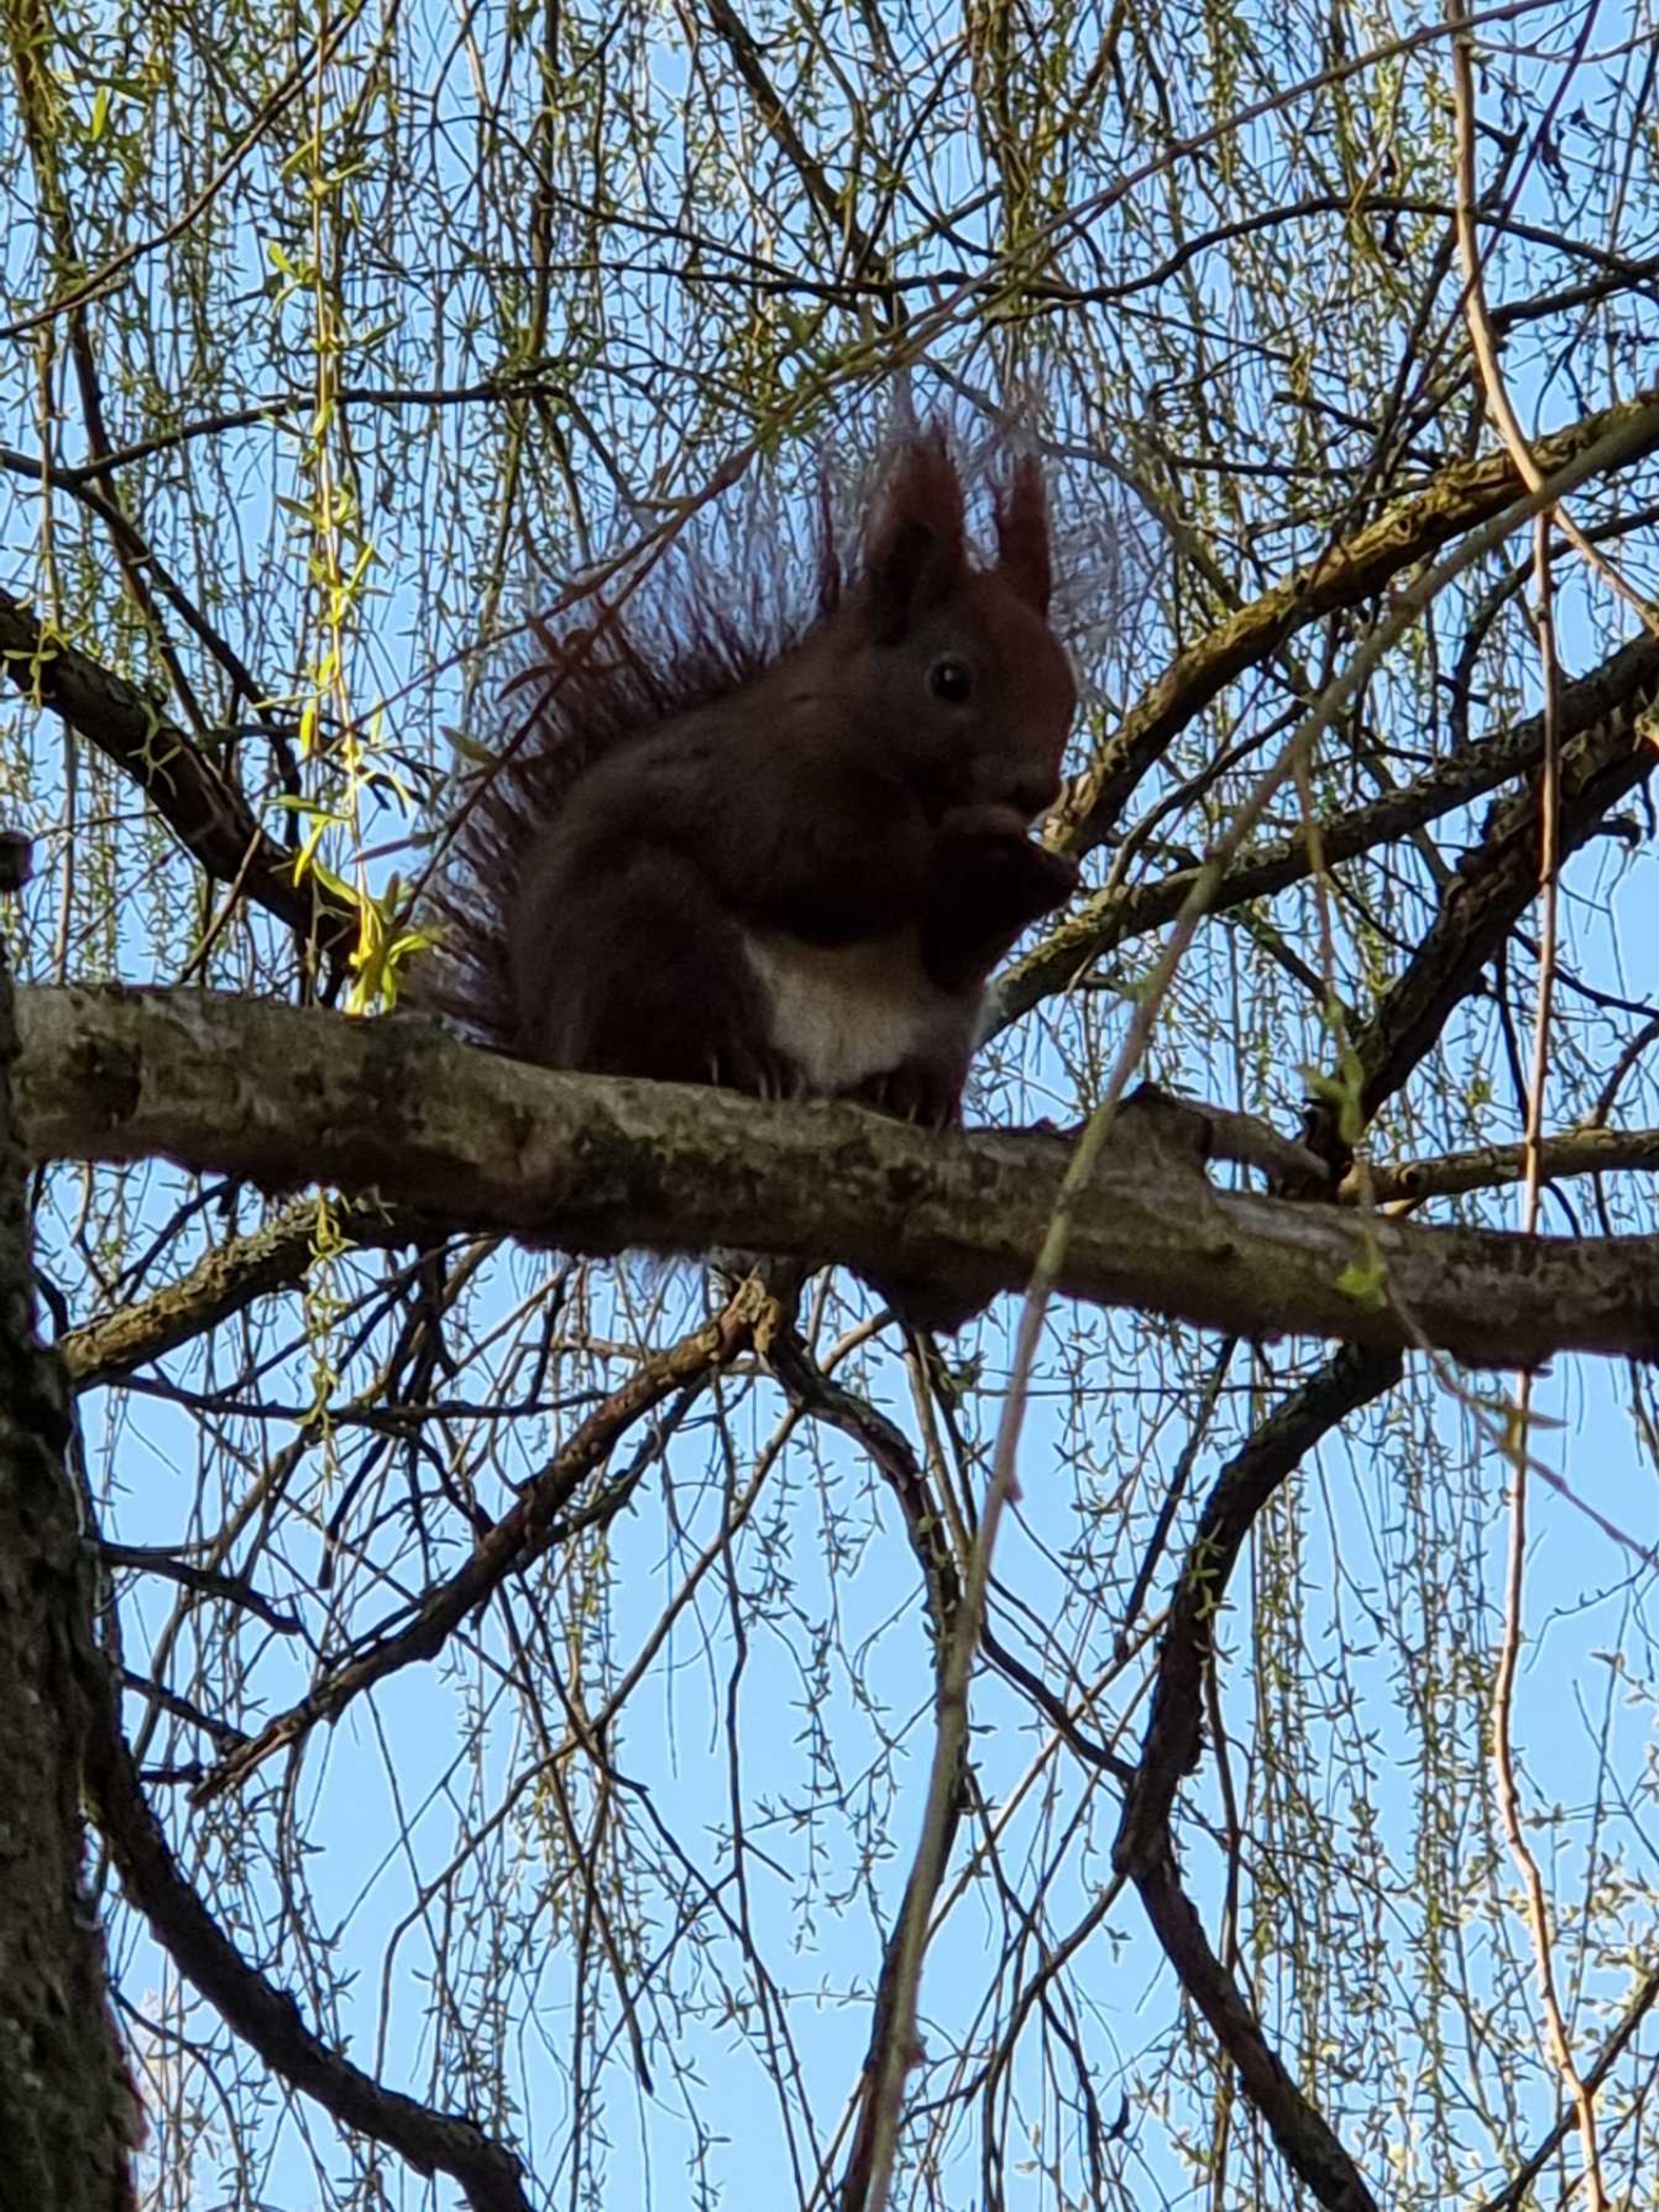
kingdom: Animalia
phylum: Chordata
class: Mammalia
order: Rodentia
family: Sciuridae
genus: Sciurus
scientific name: Sciurus vulgaris
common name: Egern
